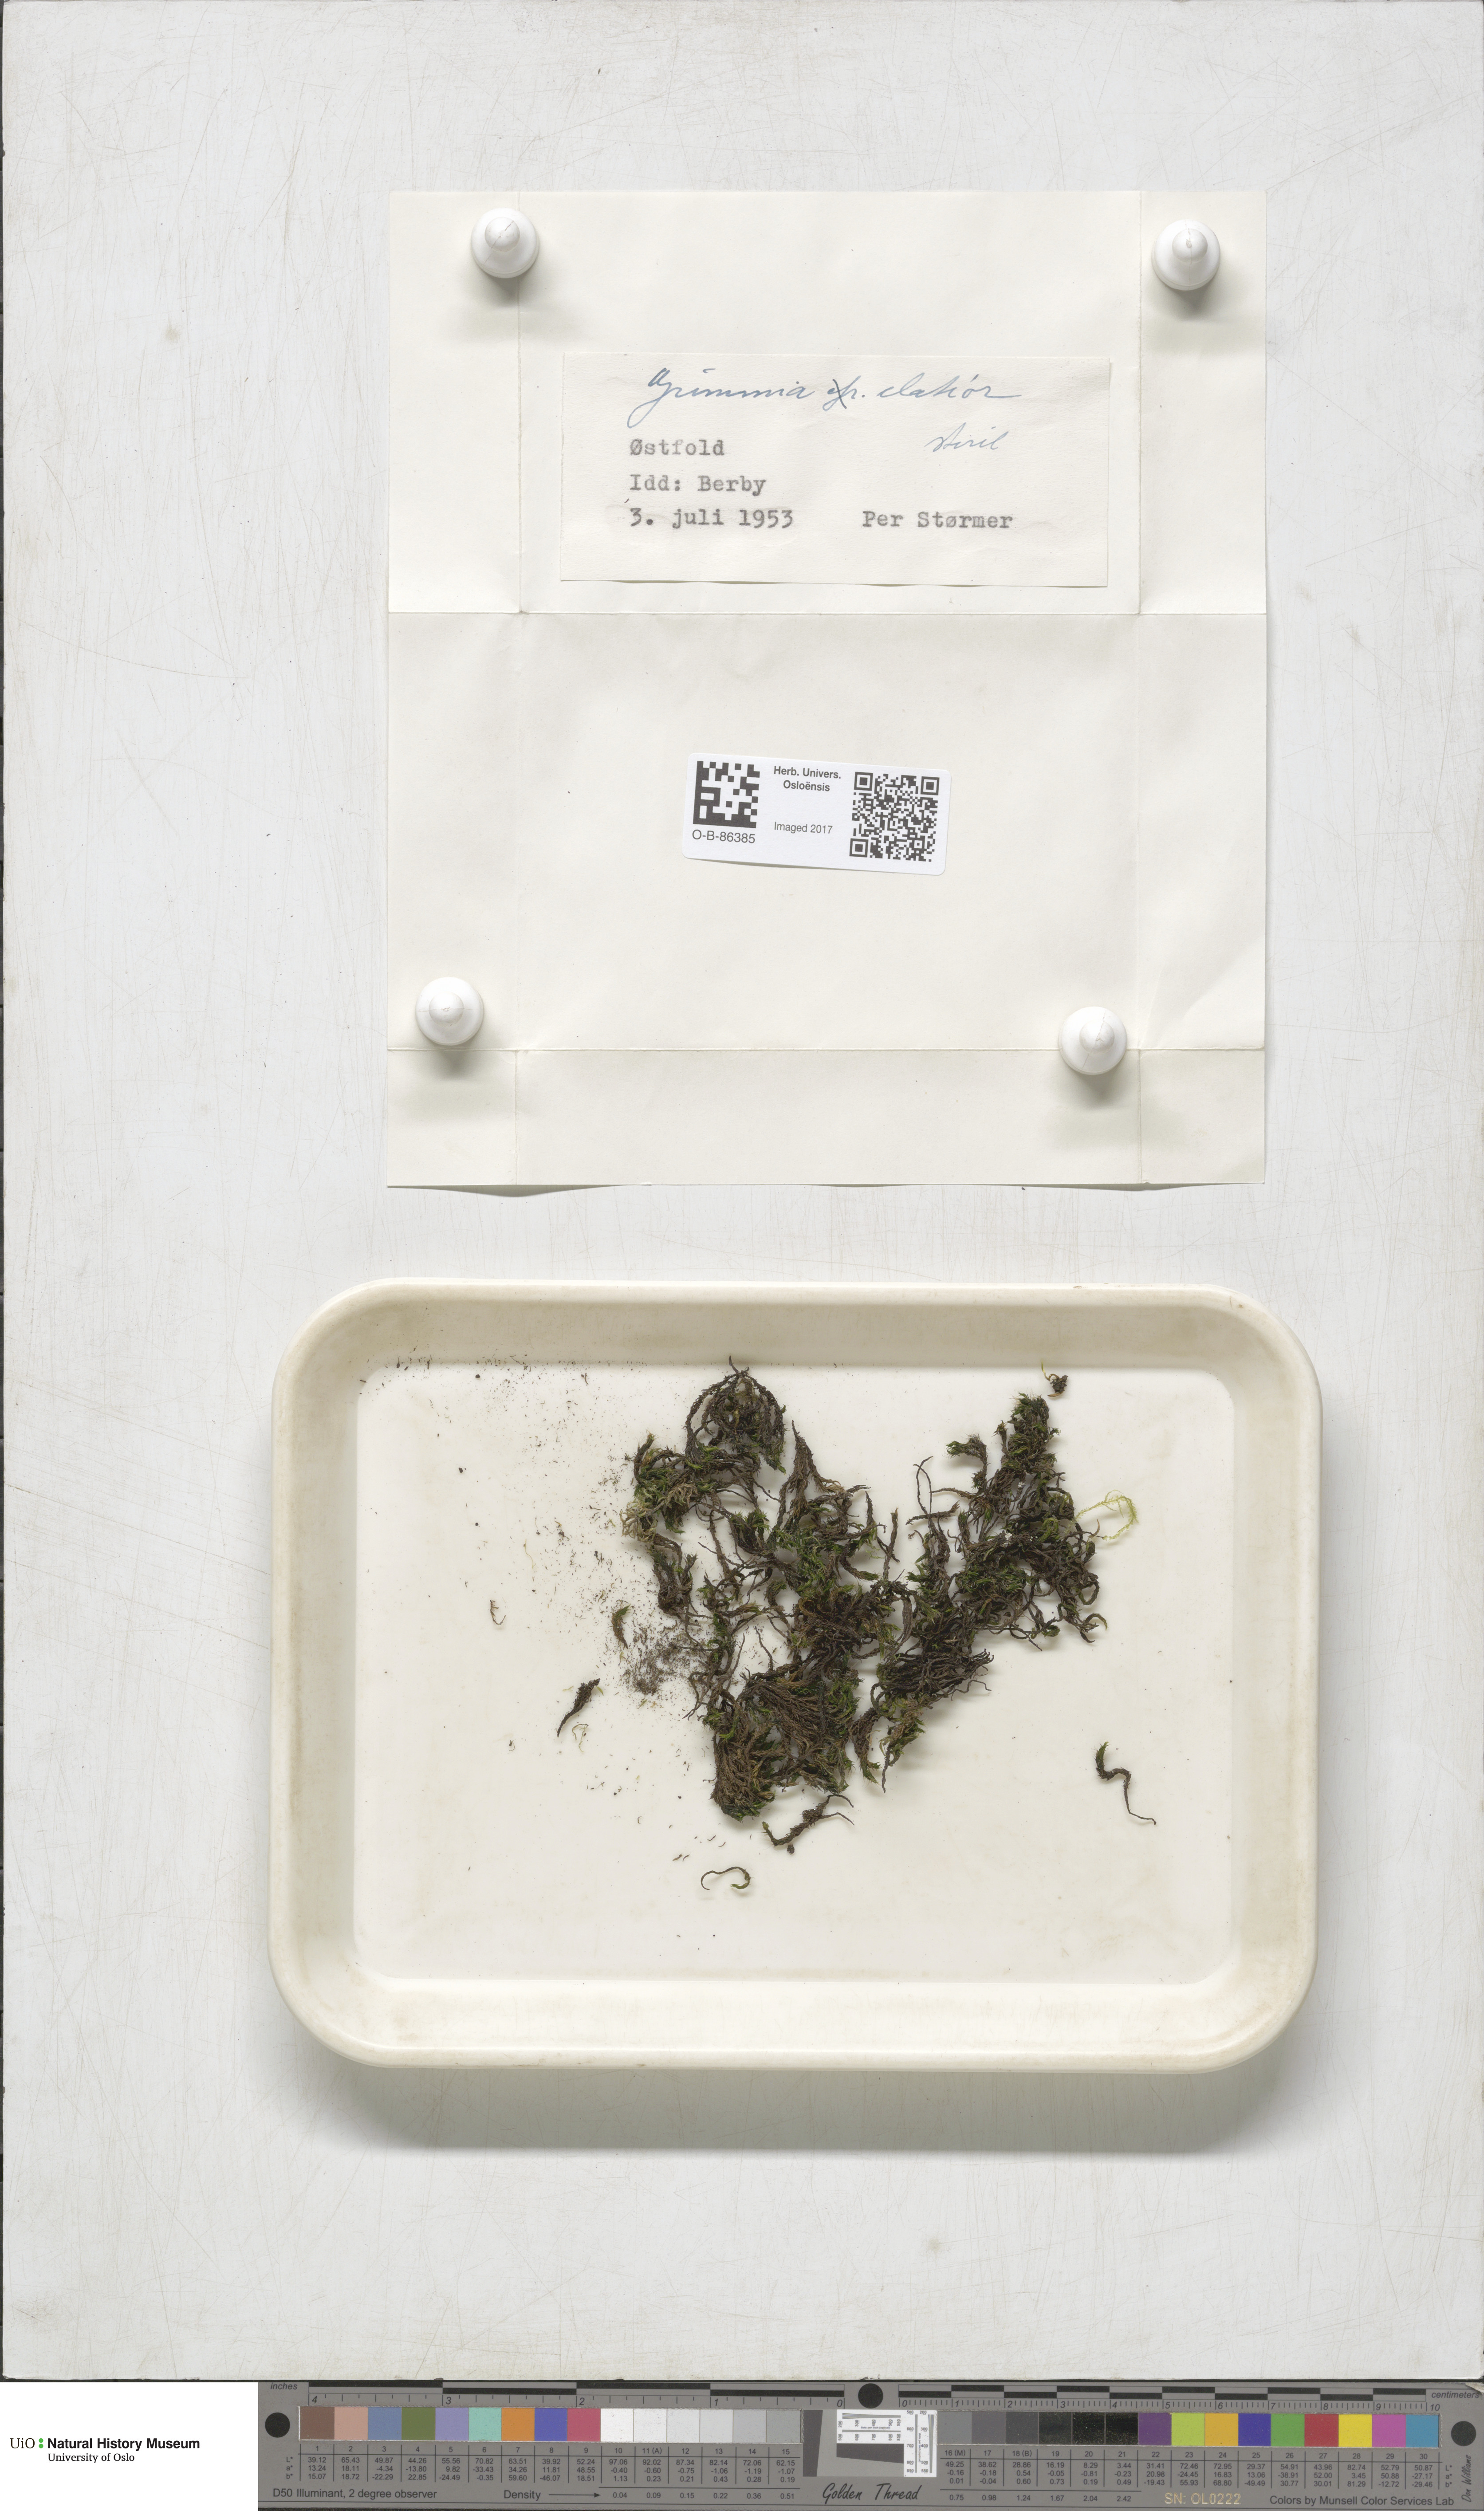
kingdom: Plantae
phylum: Bryophyta
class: Bryopsida
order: Grimmiales
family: Grimmiaceae
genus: Grimmia
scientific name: Grimmia elatior
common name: Large grimmia
